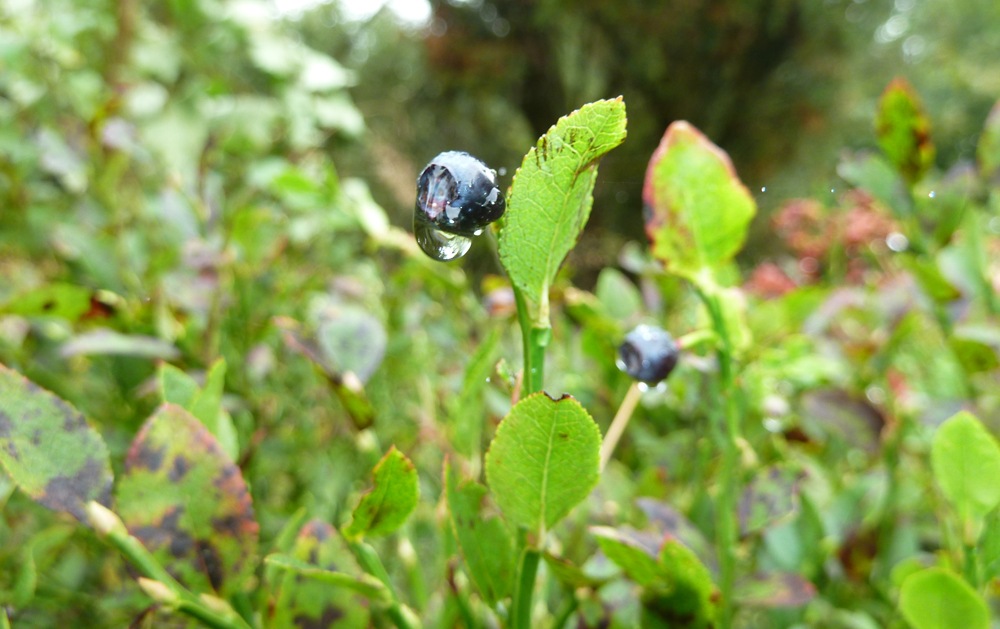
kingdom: Plantae
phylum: Tracheophyta
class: Magnoliopsida
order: Ericales
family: Ericaceae
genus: Vaccinium
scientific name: Vaccinium myrtillus
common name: Bilberry
